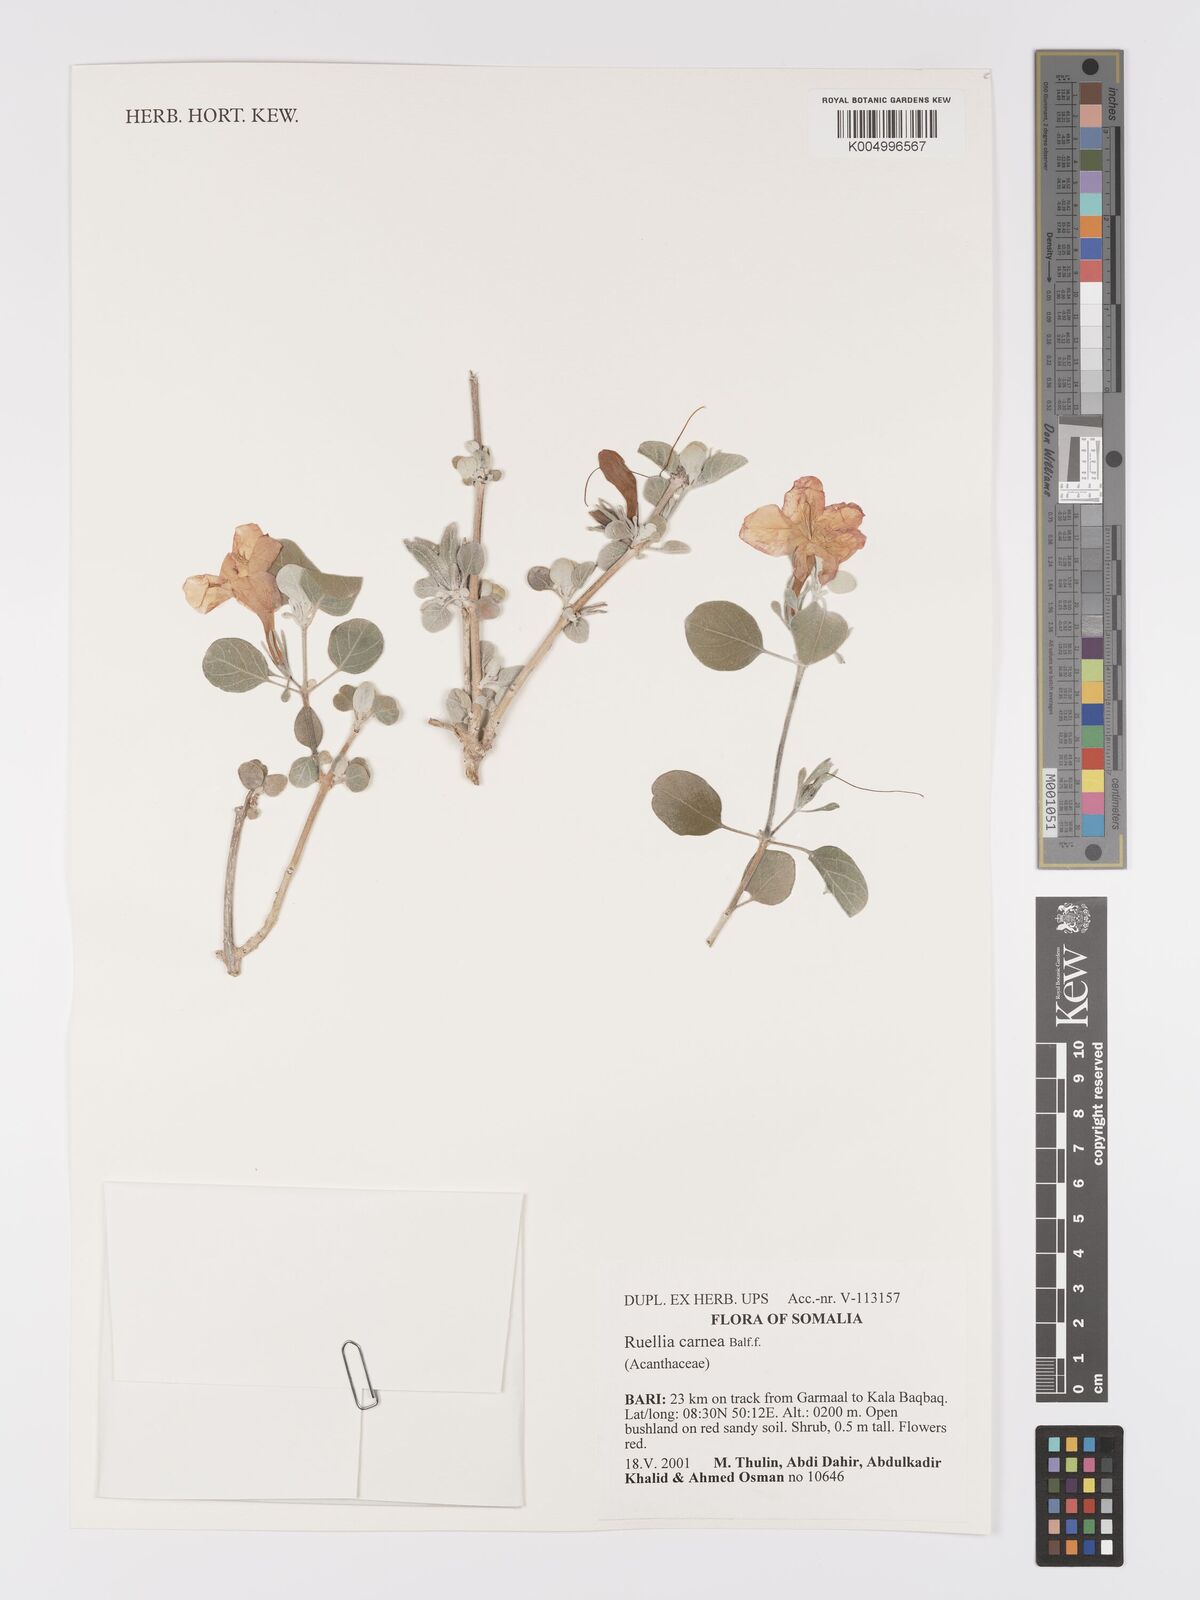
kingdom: Plantae
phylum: Tracheophyta
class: Magnoliopsida
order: Lamiales
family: Acanthaceae
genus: Ruellia
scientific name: Ruellia carnea
